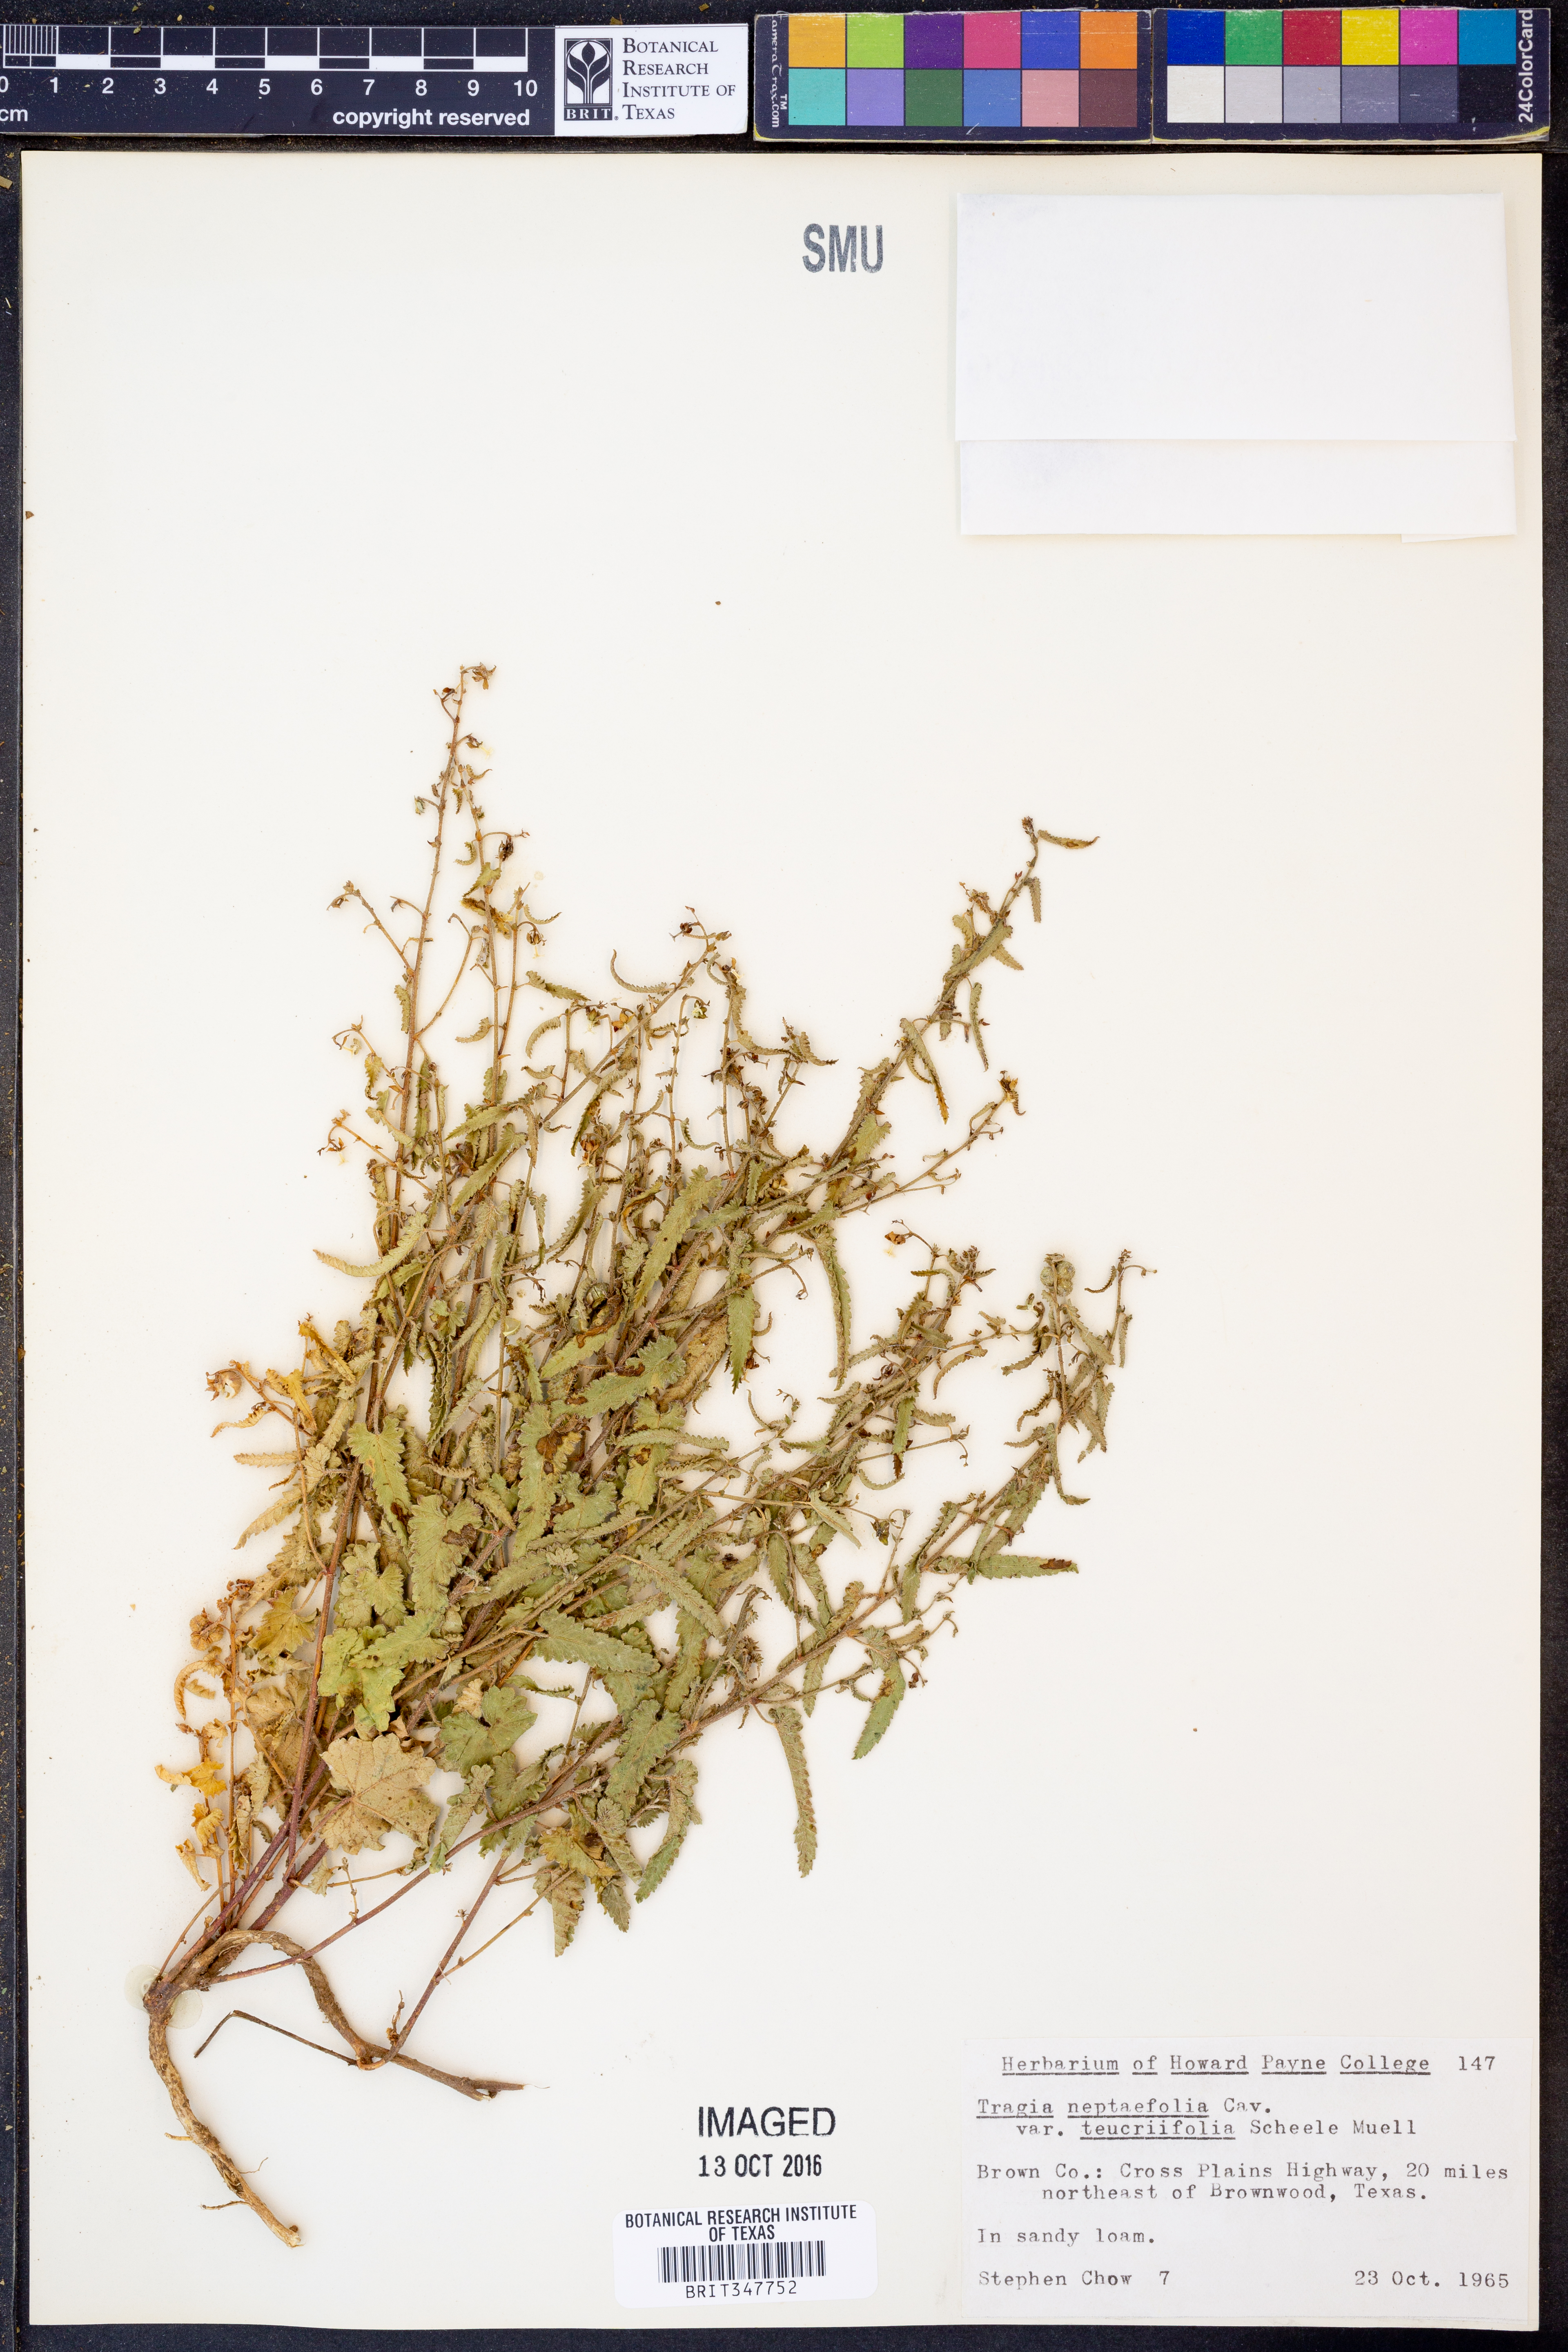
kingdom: Plantae
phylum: Tracheophyta
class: Magnoliopsida
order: Malpighiales
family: Euphorbiaceae
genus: Tragia
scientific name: Tragia brevispica
